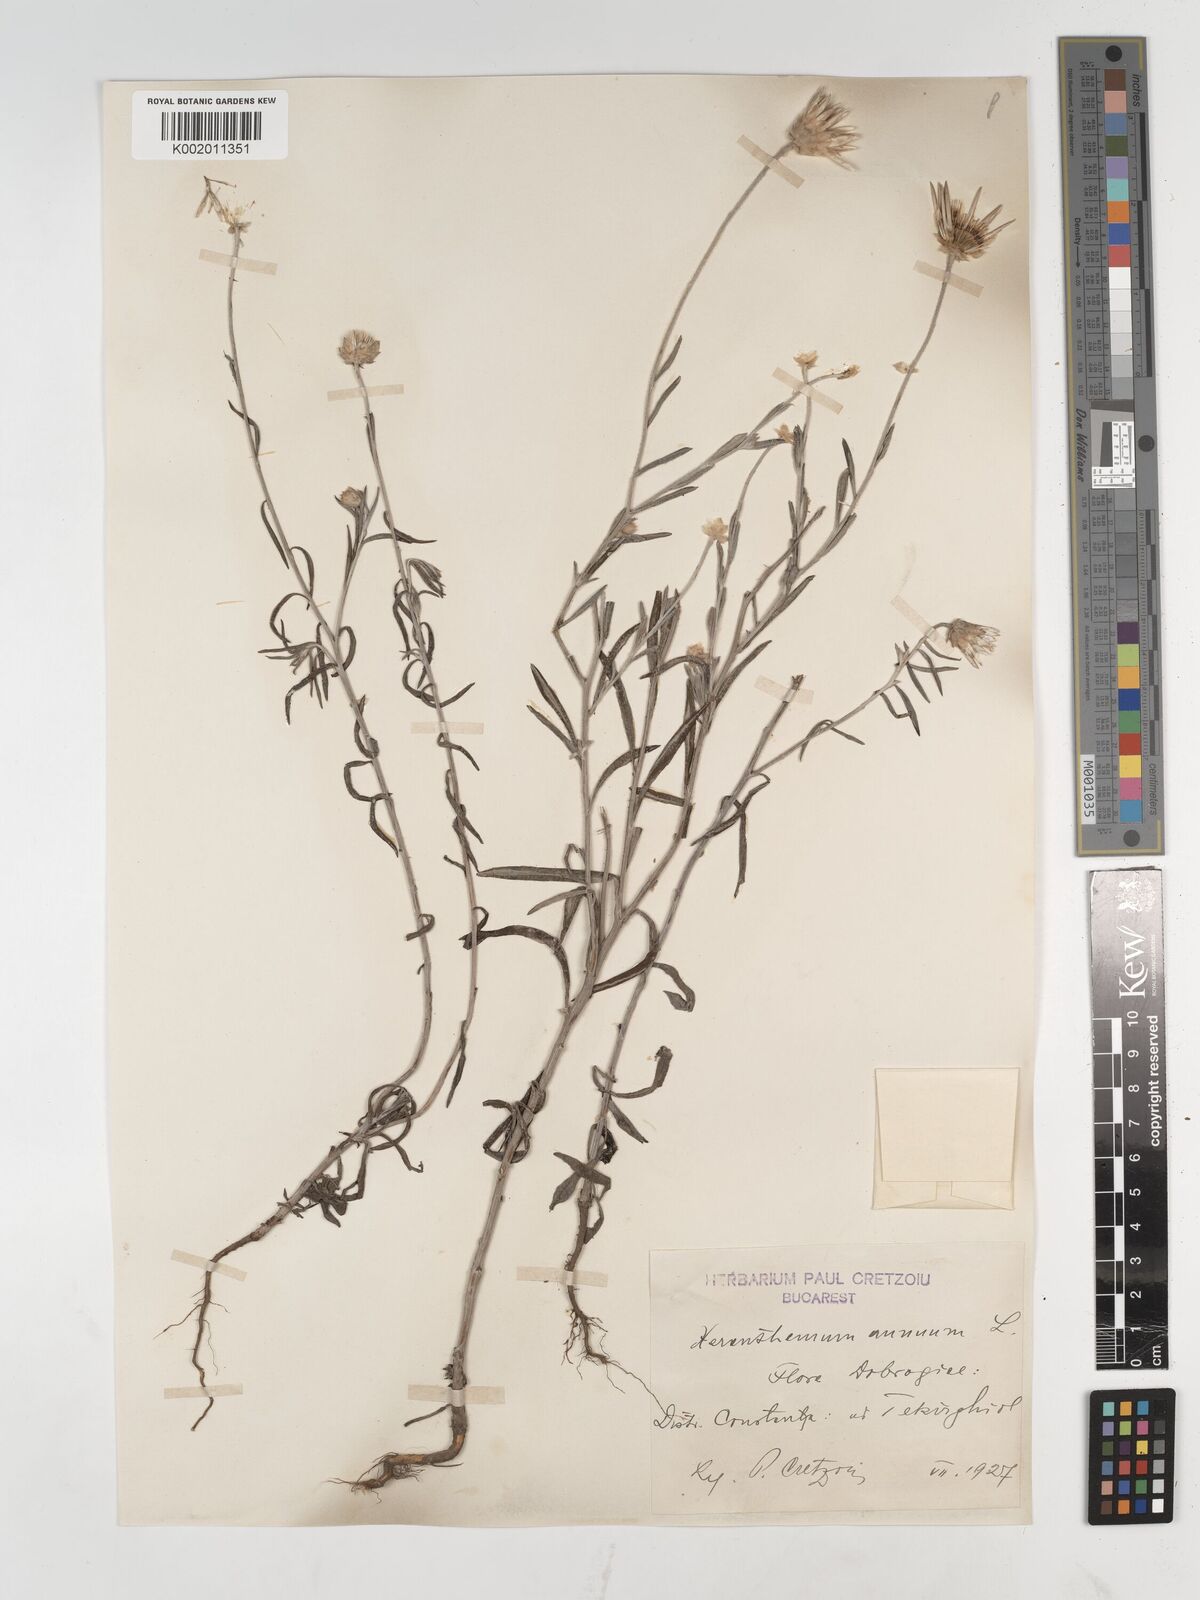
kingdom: Plantae
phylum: Tracheophyta
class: Magnoliopsida
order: Asterales
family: Asteraceae
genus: Xeranthemum
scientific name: Xeranthemum annuum
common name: Immortelle
